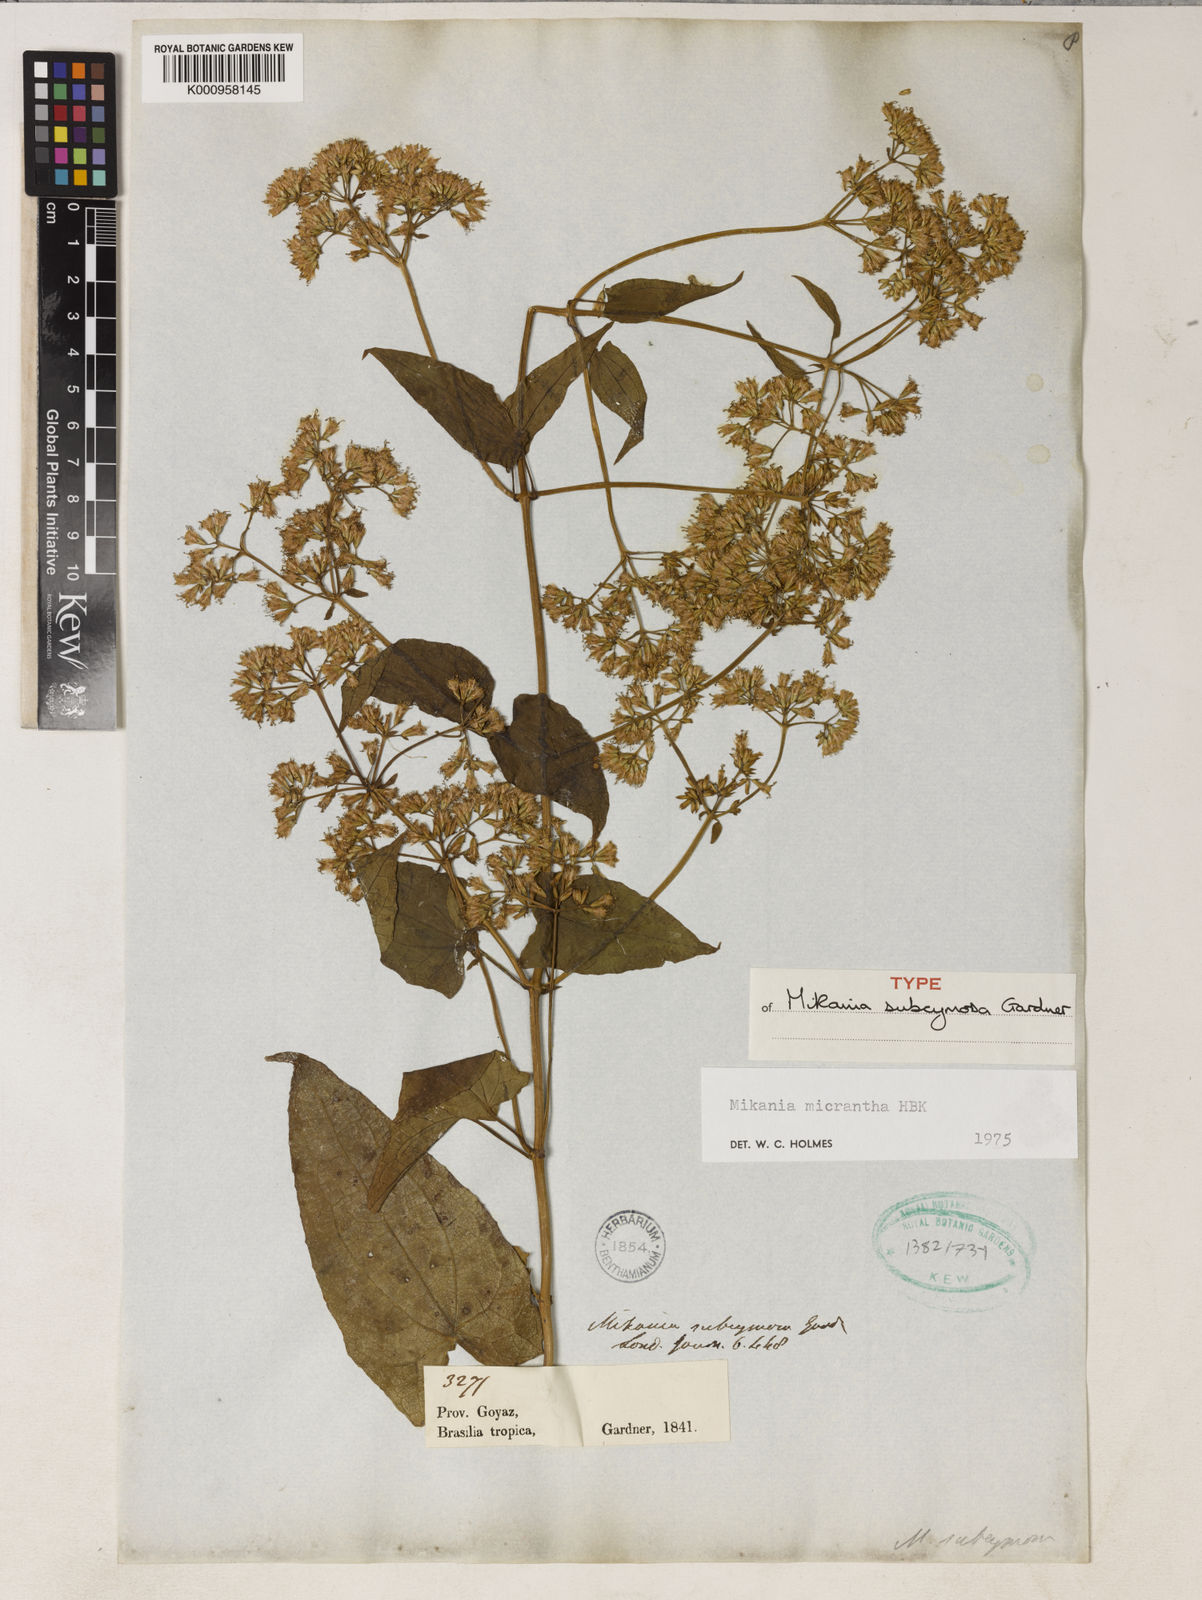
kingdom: Plantae
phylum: Tracheophyta
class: Magnoliopsida
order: Asterales
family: Asteraceae
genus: Mikania
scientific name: Mikania micrantha
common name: Mile-a-minute
